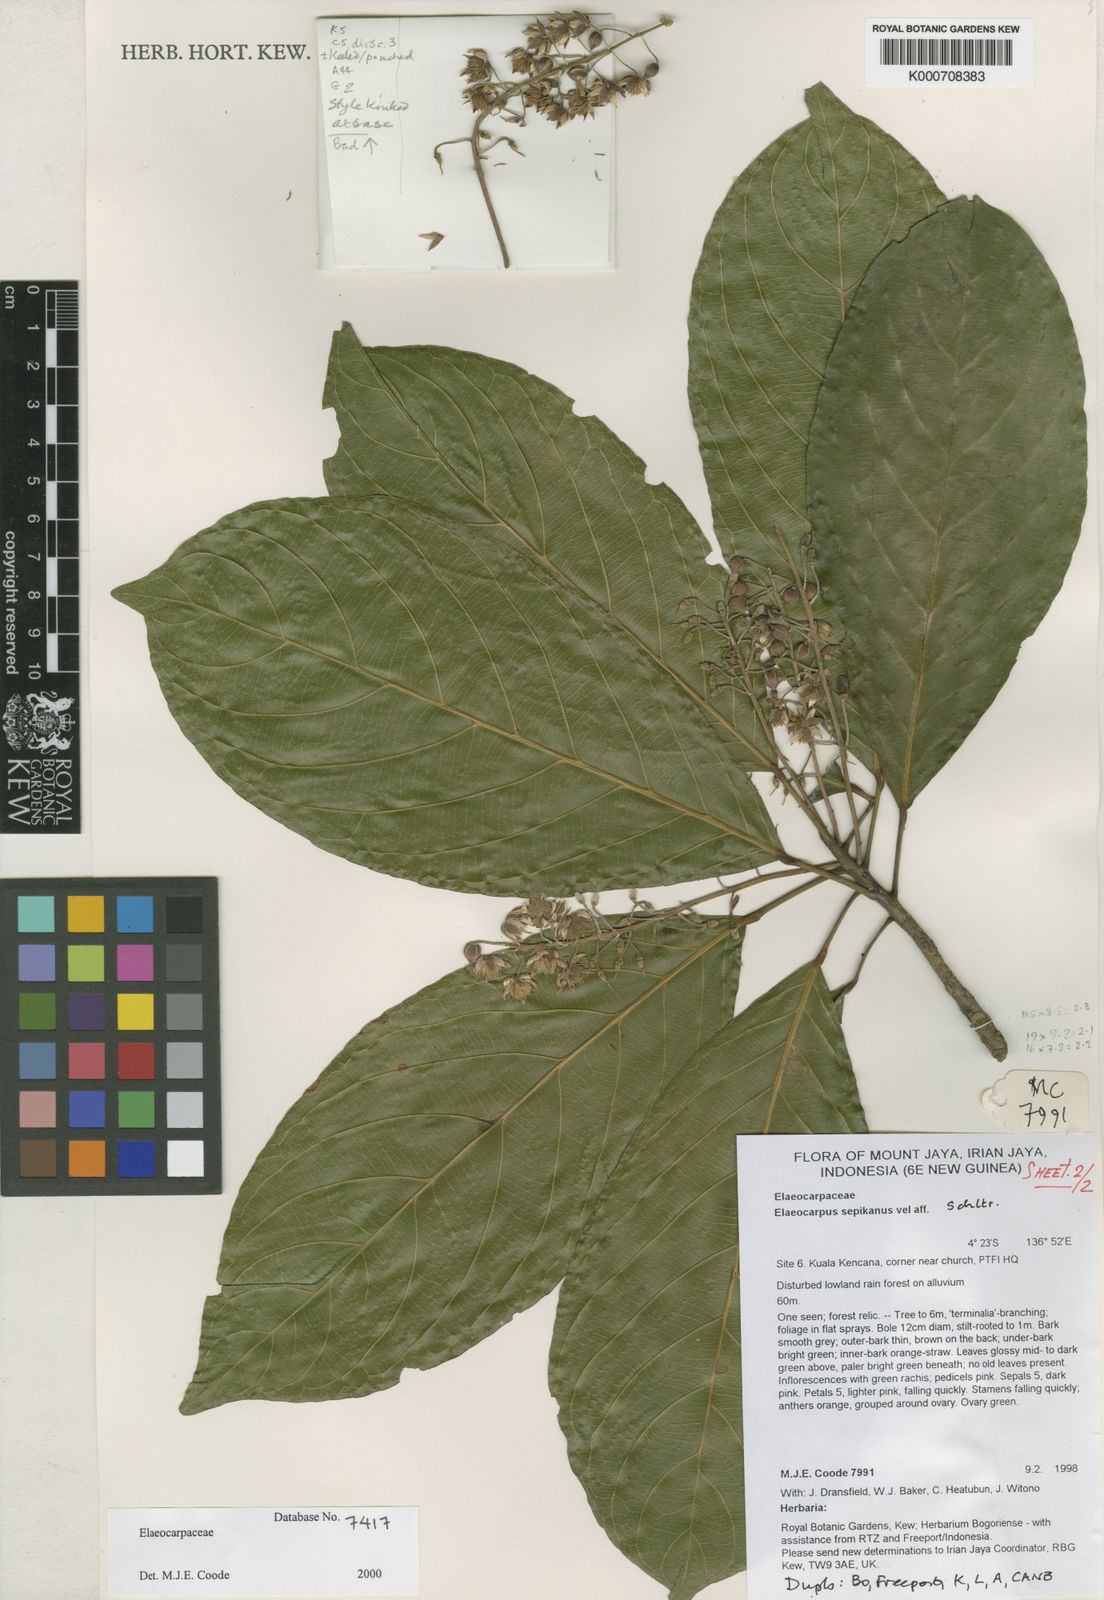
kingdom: Plantae
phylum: Tracheophyta
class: Magnoliopsida
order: Oxalidales
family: Elaeocarpaceae
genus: Elaeocarpus
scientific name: Elaeocarpus sepikanus
